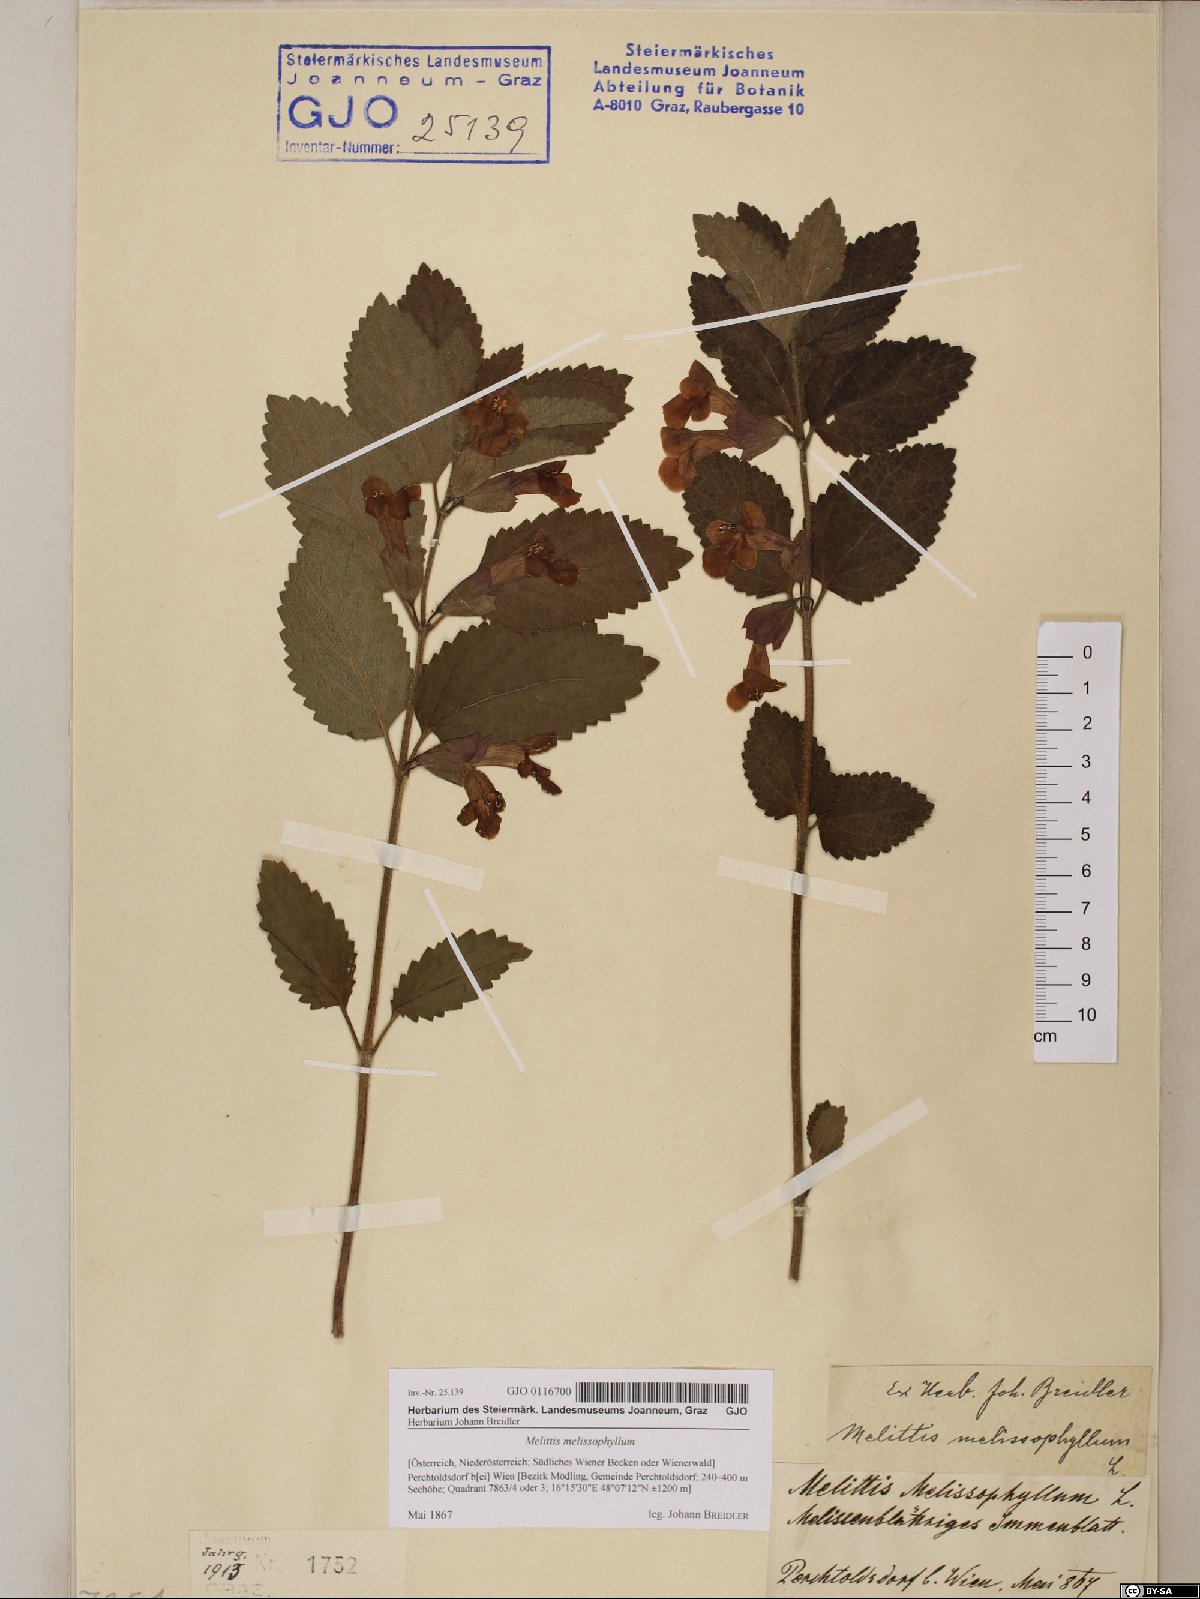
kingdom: Plantae
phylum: Tracheophyta
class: Magnoliopsida
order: Lamiales
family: Lamiaceae
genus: Melittis
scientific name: Melittis melissophyllum
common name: Bastard balm
